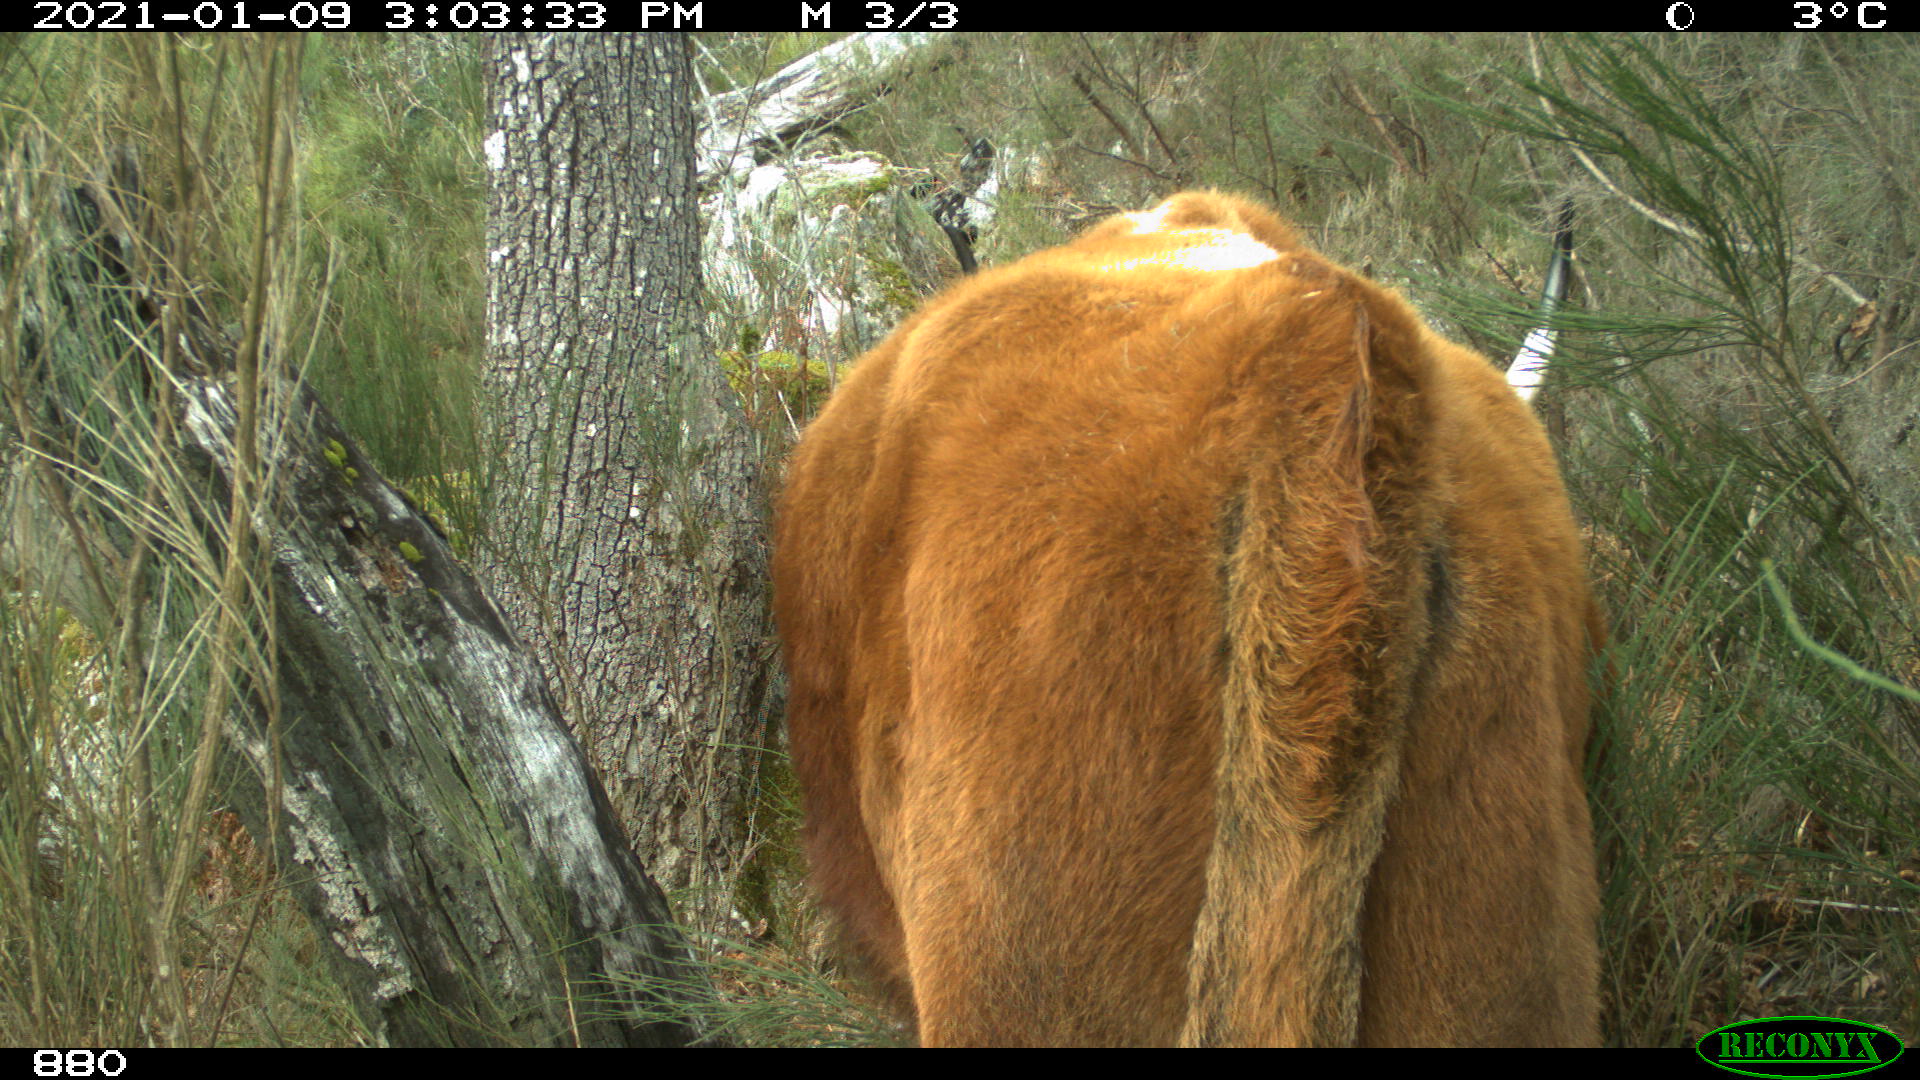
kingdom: Animalia
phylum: Chordata
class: Mammalia
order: Artiodactyla
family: Bovidae
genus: Bos
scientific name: Bos taurus
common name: Domesticated cattle
